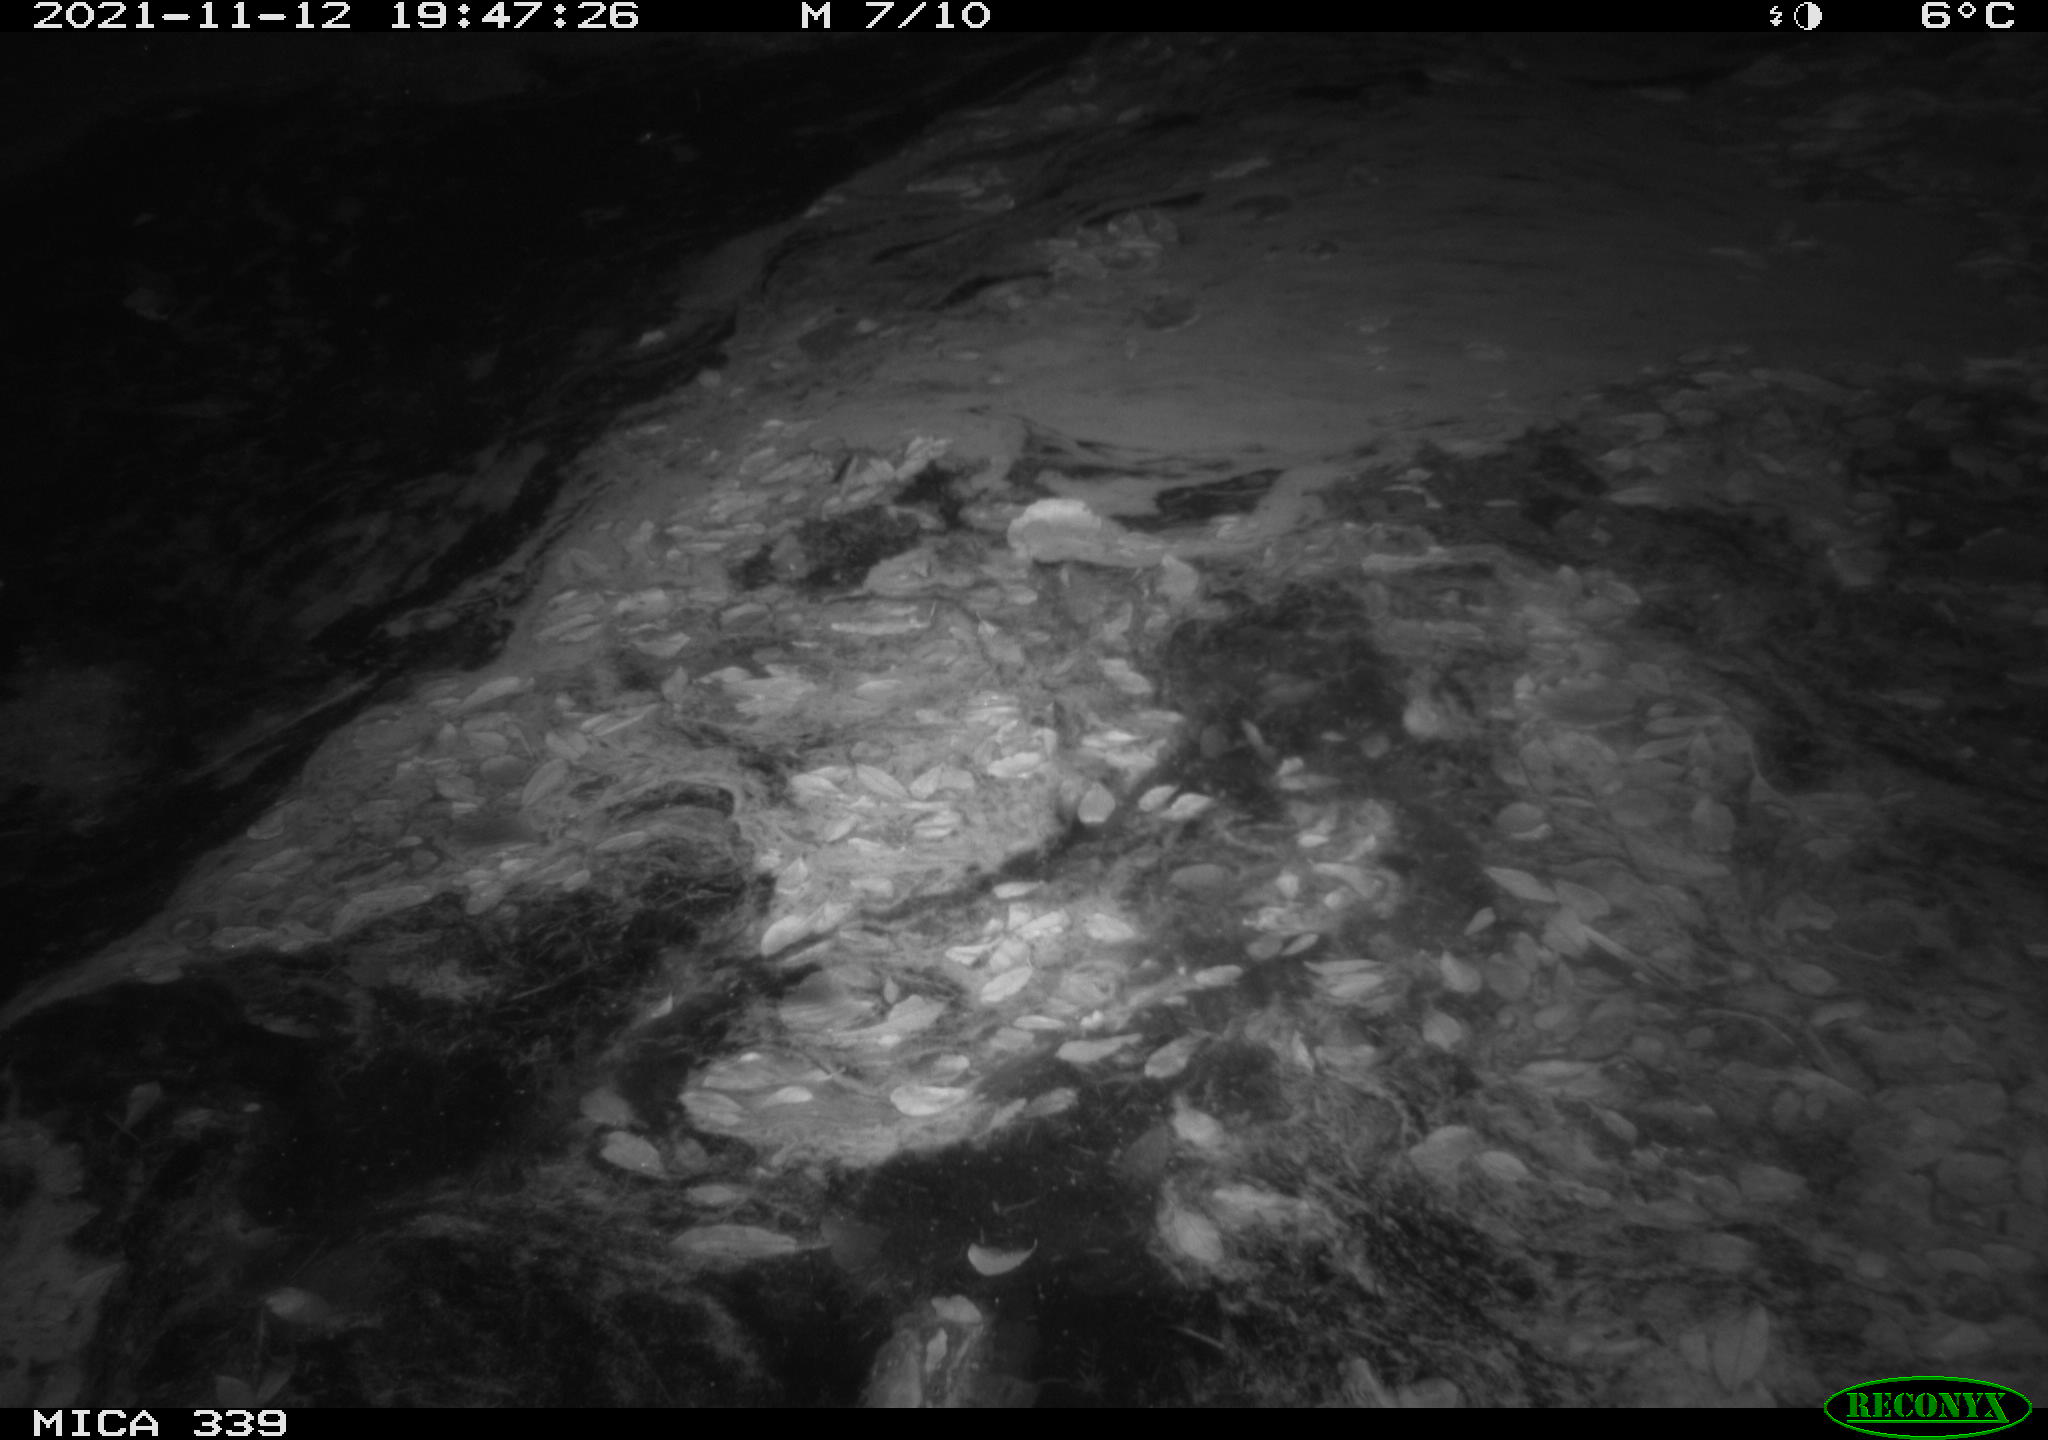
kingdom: Animalia
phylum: Chordata
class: Mammalia
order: Rodentia
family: Muridae
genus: Rattus
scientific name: Rattus norvegicus
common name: Brown rat
